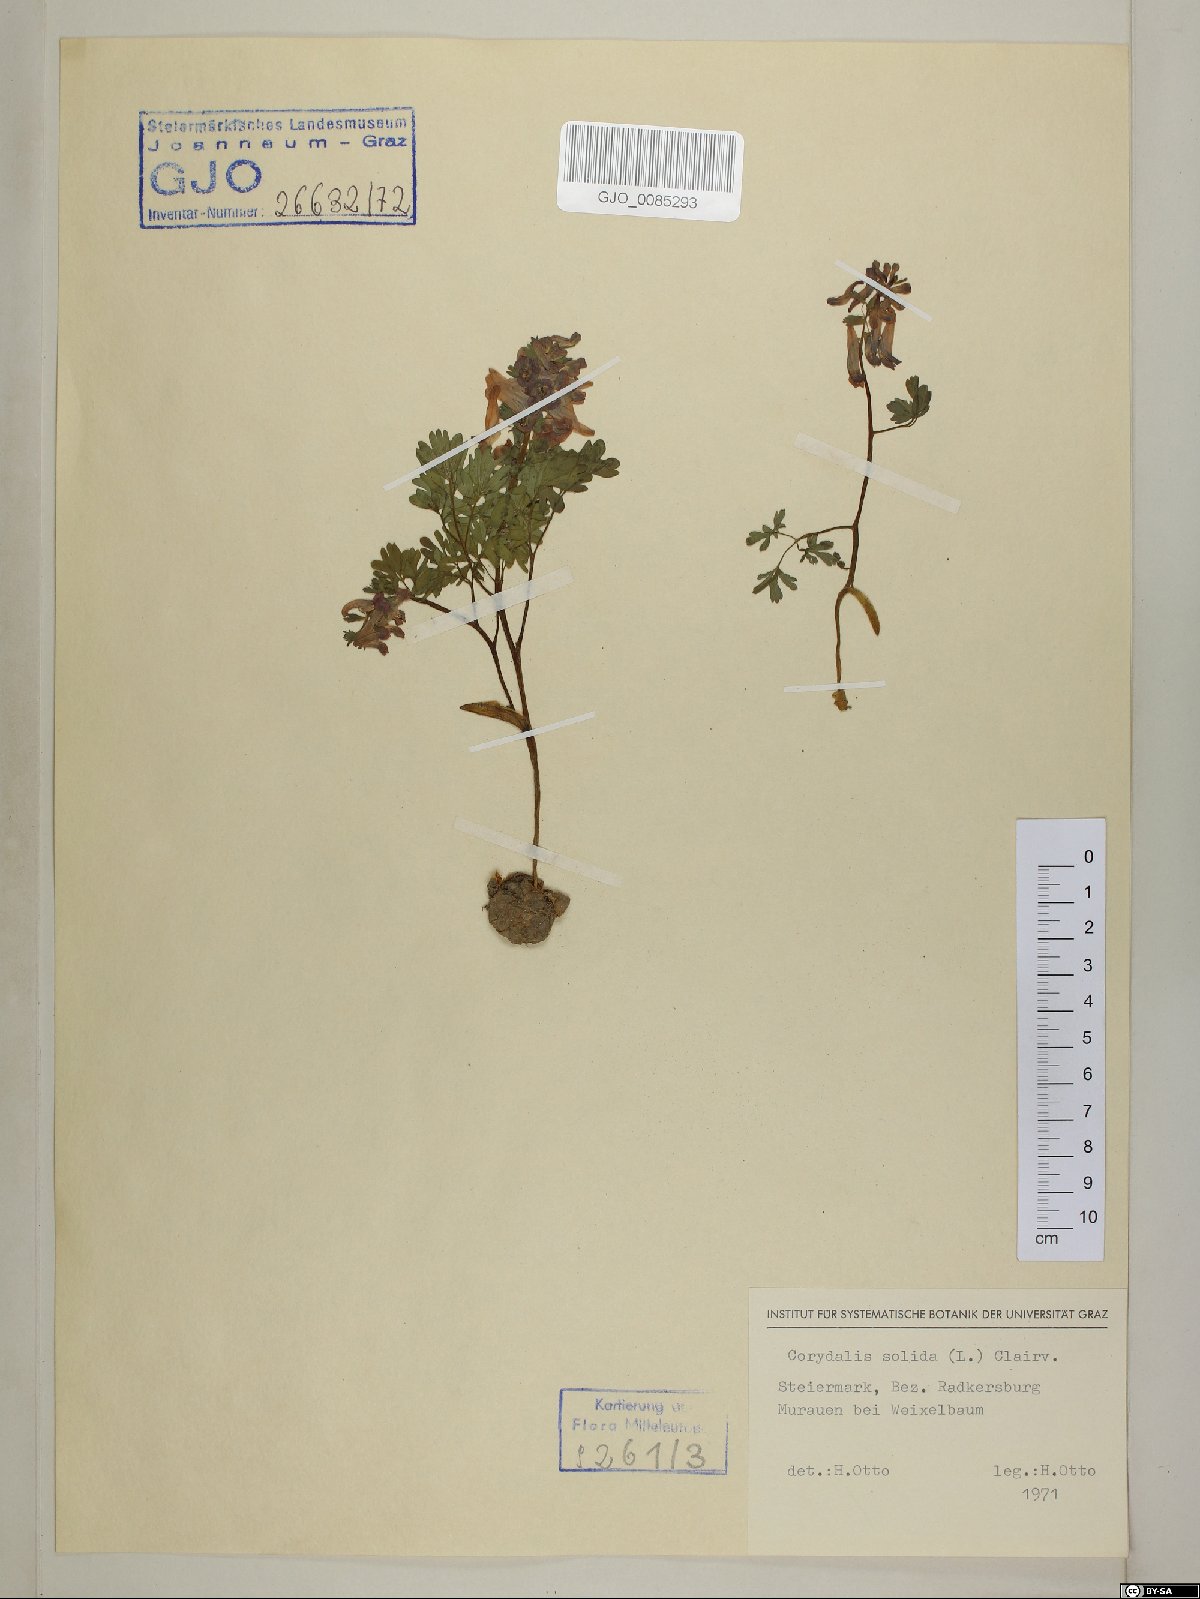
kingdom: Plantae
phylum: Tracheophyta
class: Magnoliopsida
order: Ranunculales
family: Papaveraceae
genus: Corydalis
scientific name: Corydalis solida
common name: Bird-in-a-bush
